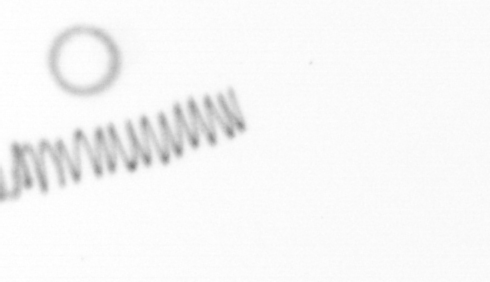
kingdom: Chromista
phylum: Ochrophyta
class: Bacillariophyceae
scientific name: Bacillariophyceae
